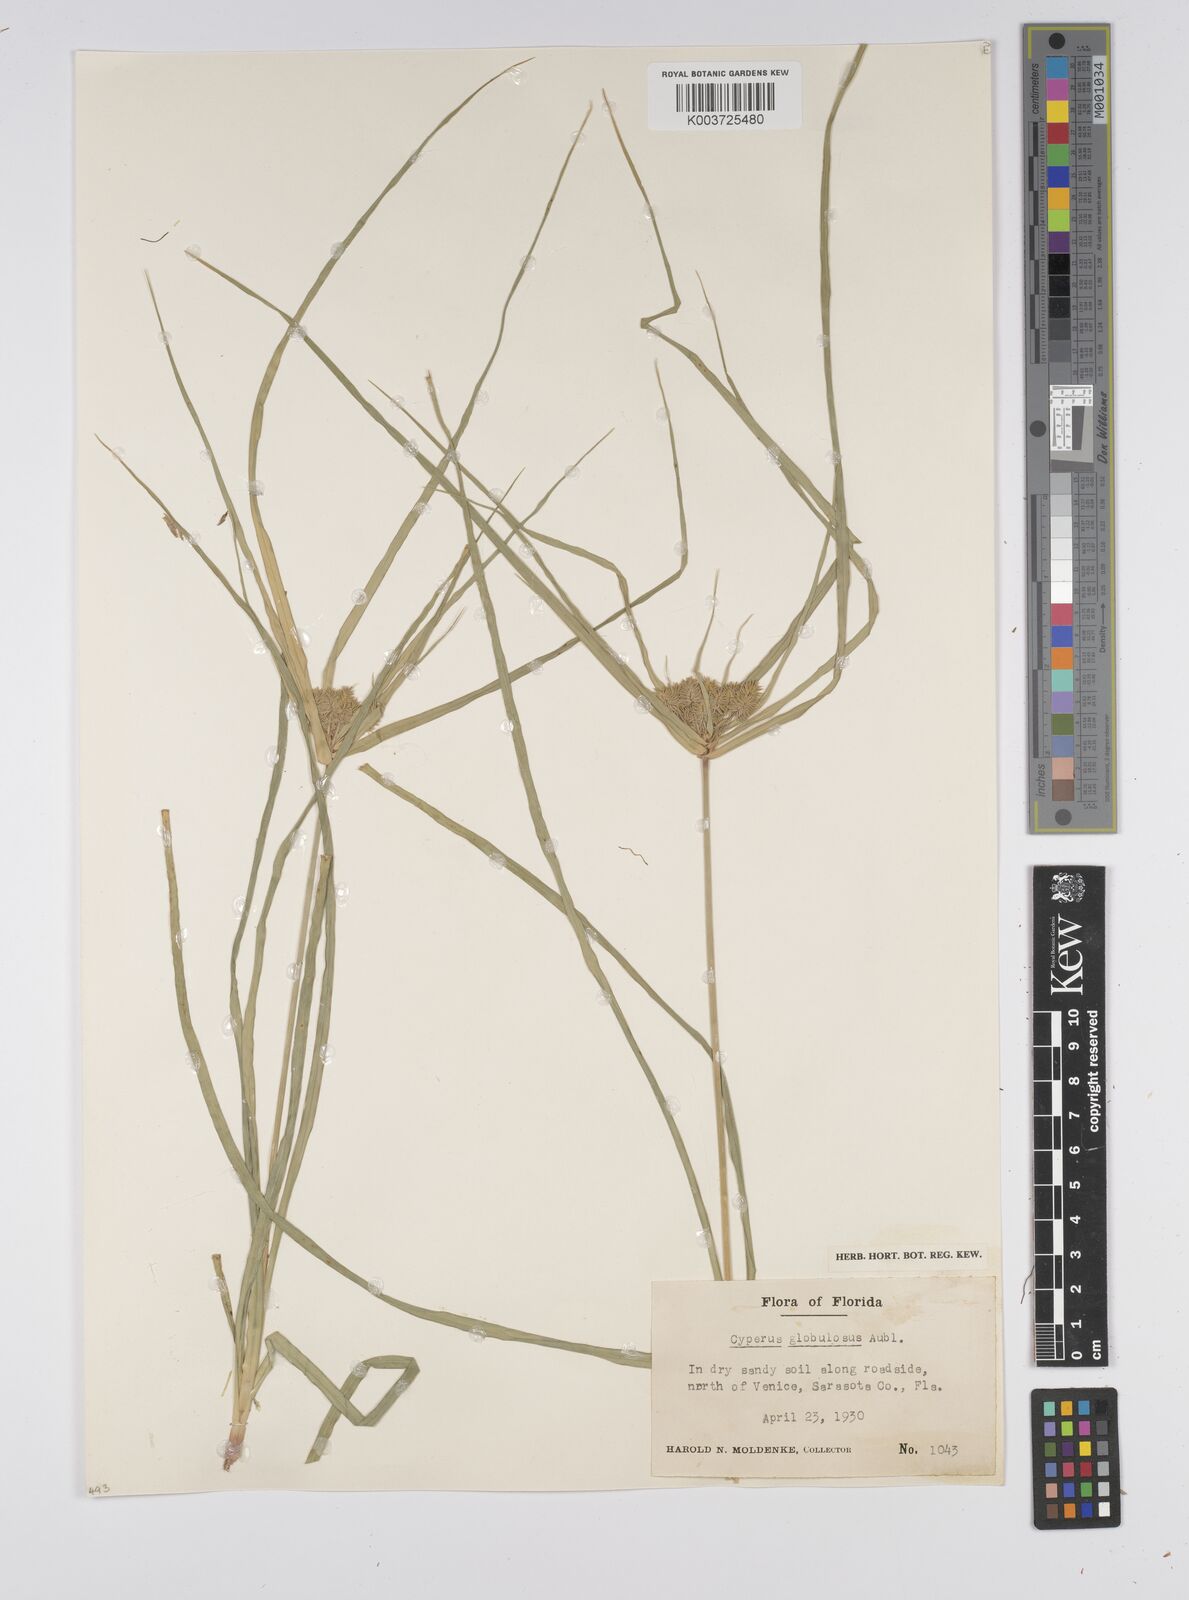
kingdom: Plantae
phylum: Tracheophyta
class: Liliopsida
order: Poales
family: Cyperaceae
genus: Cyperus
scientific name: Cyperus luzulae
